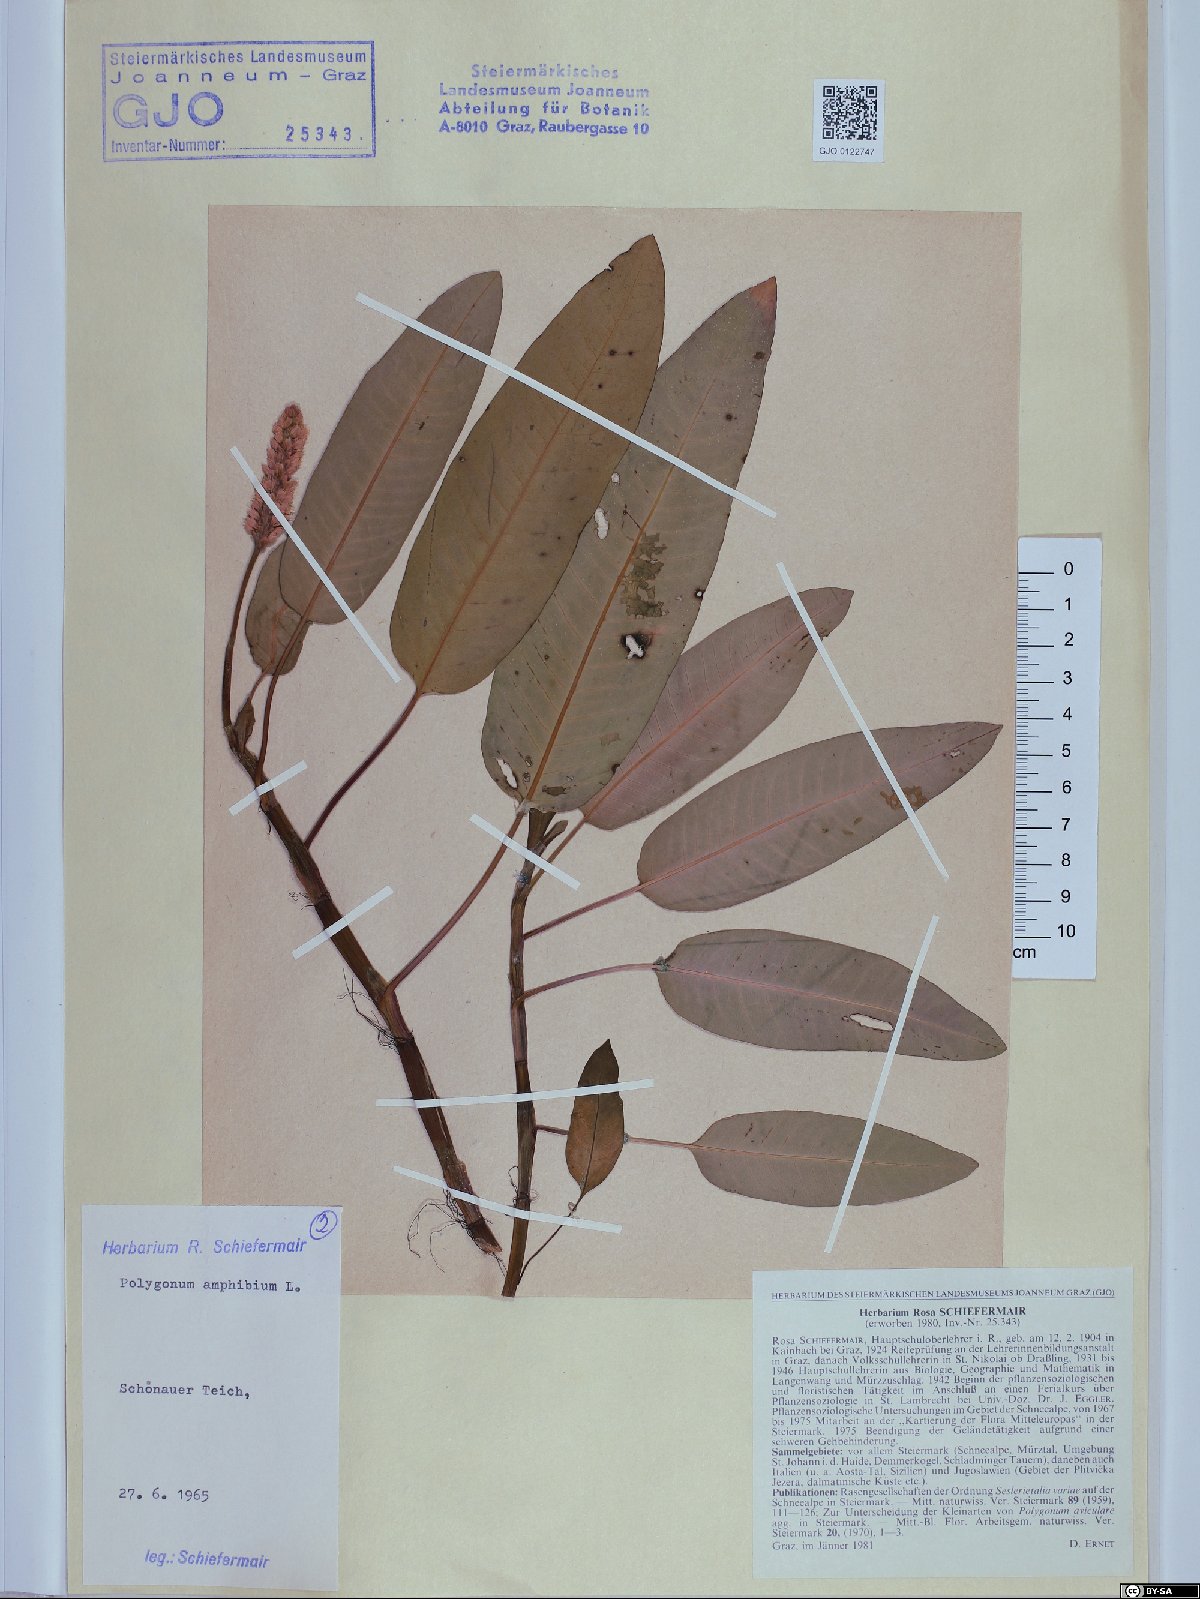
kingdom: Plantae
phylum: Tracheophyta
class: Magnoliopsida
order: Caryophyllales
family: Polygonaceae
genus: Persicaria
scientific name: Persicaria amphibia
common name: Amphibious bistort
